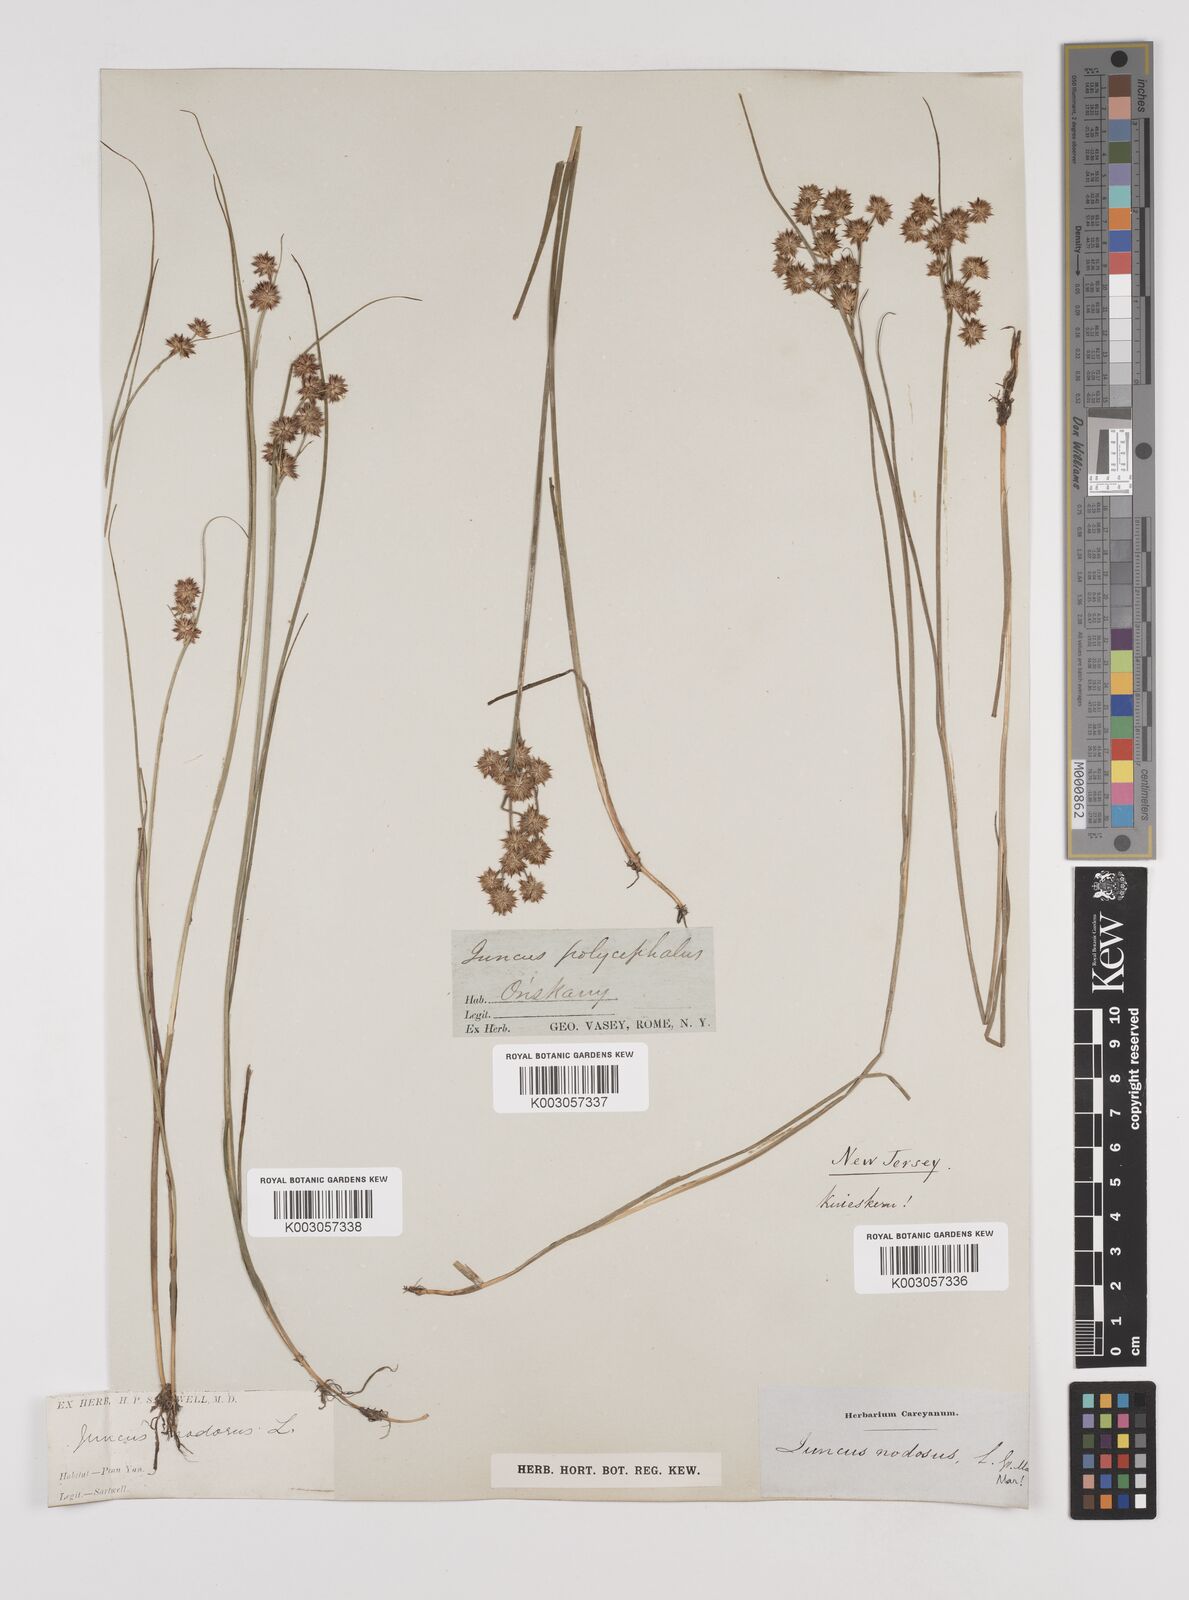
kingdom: Plantae
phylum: Tracheophyta
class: Liliopsida
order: Poales
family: Juncaceae
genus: Juncus
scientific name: Juncus nodosus
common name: Knotted rush
